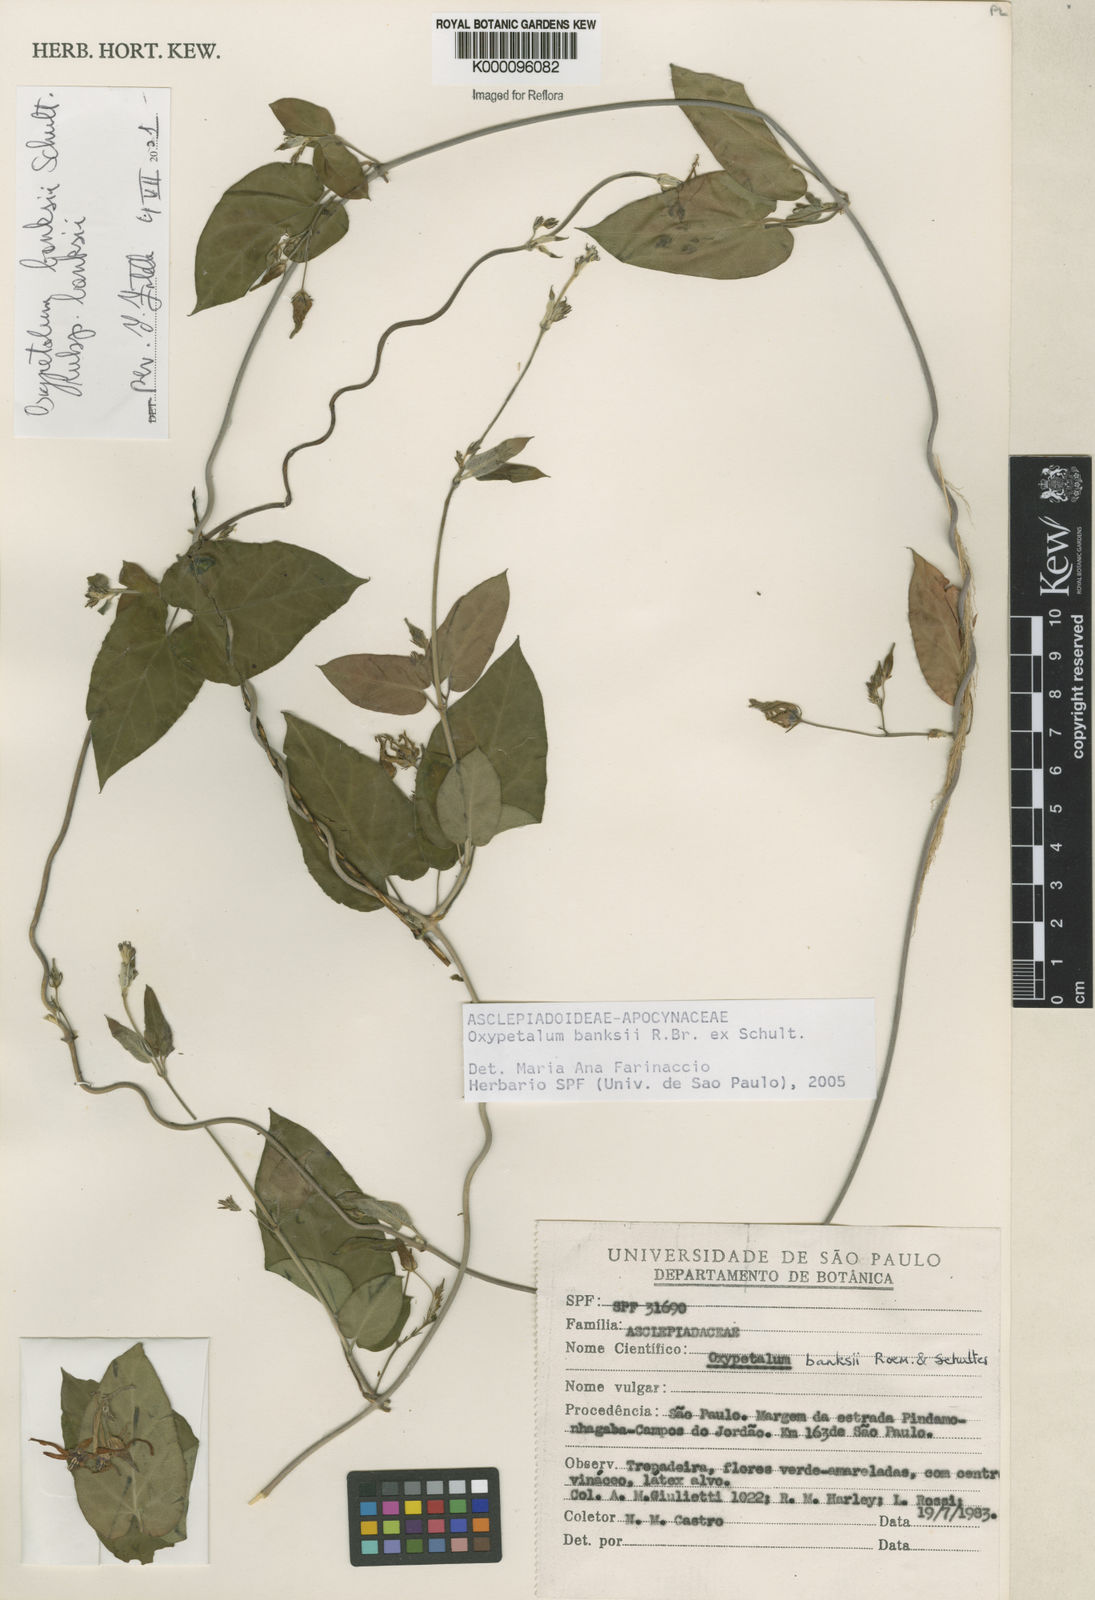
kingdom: Plantae
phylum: Tracheophyta
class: Magnoliopsida
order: Gentianales
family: Apocynaceae
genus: Oxypetalum
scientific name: Oxypetalum banksii
